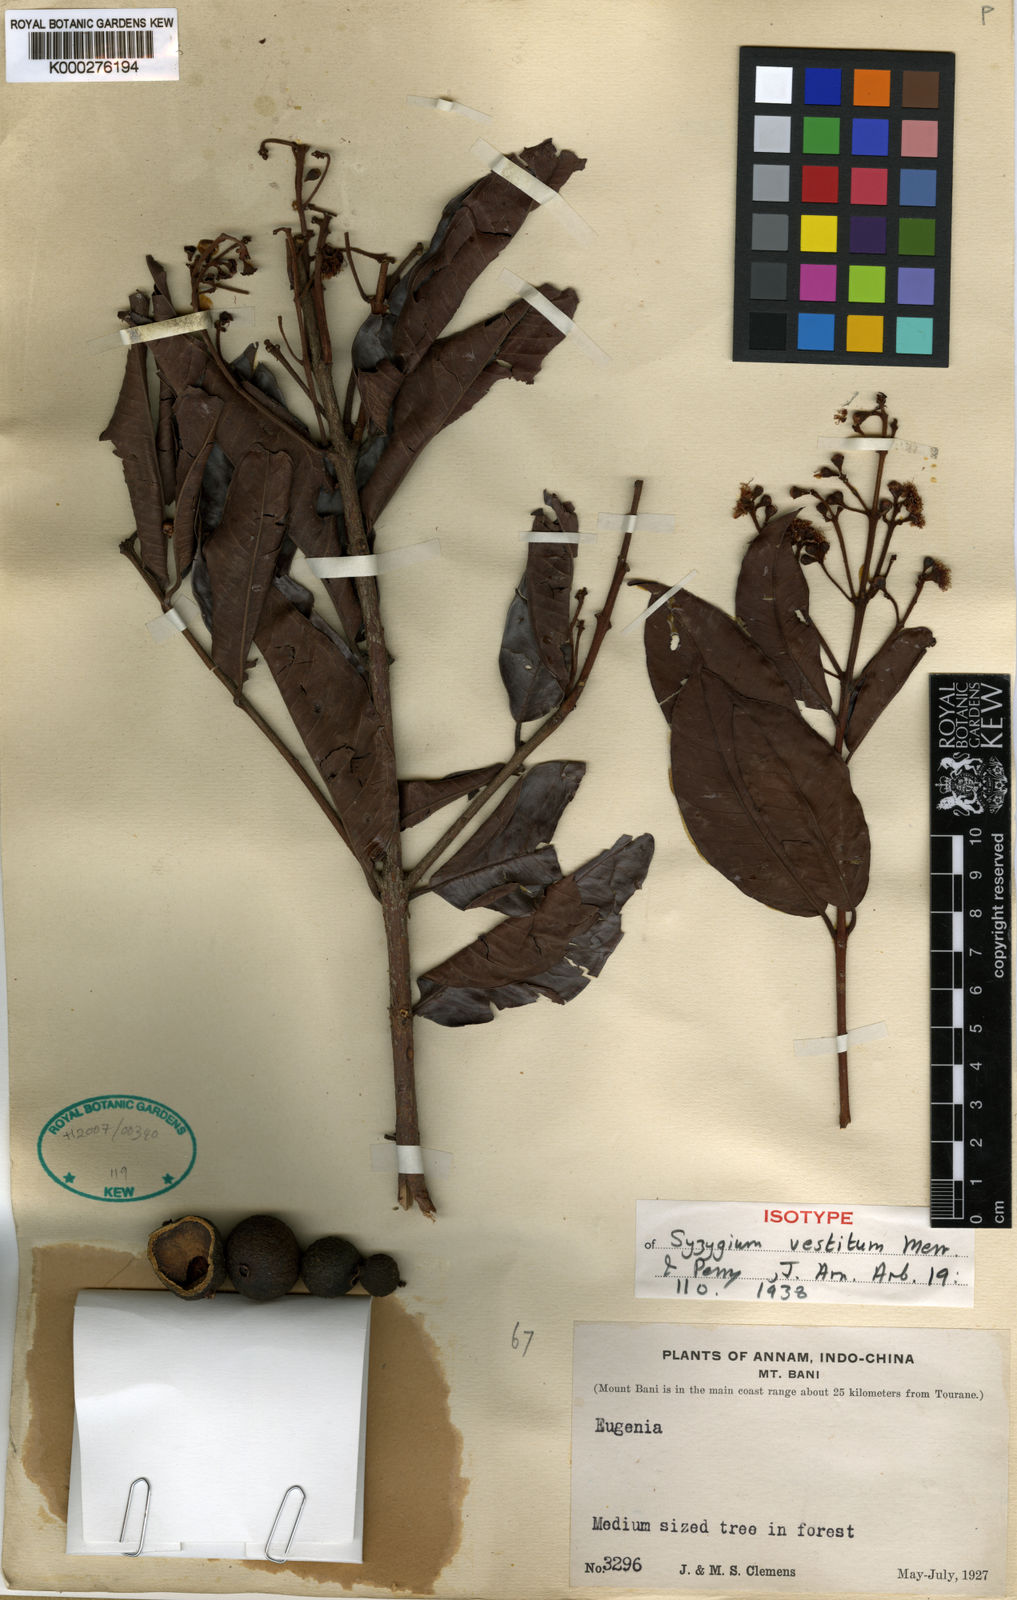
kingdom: Plantae
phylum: Tracheophyta
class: Magnoliopsida
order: Myrtales
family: Myrtaceae
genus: Syzygium
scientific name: Syzygium vestitum
